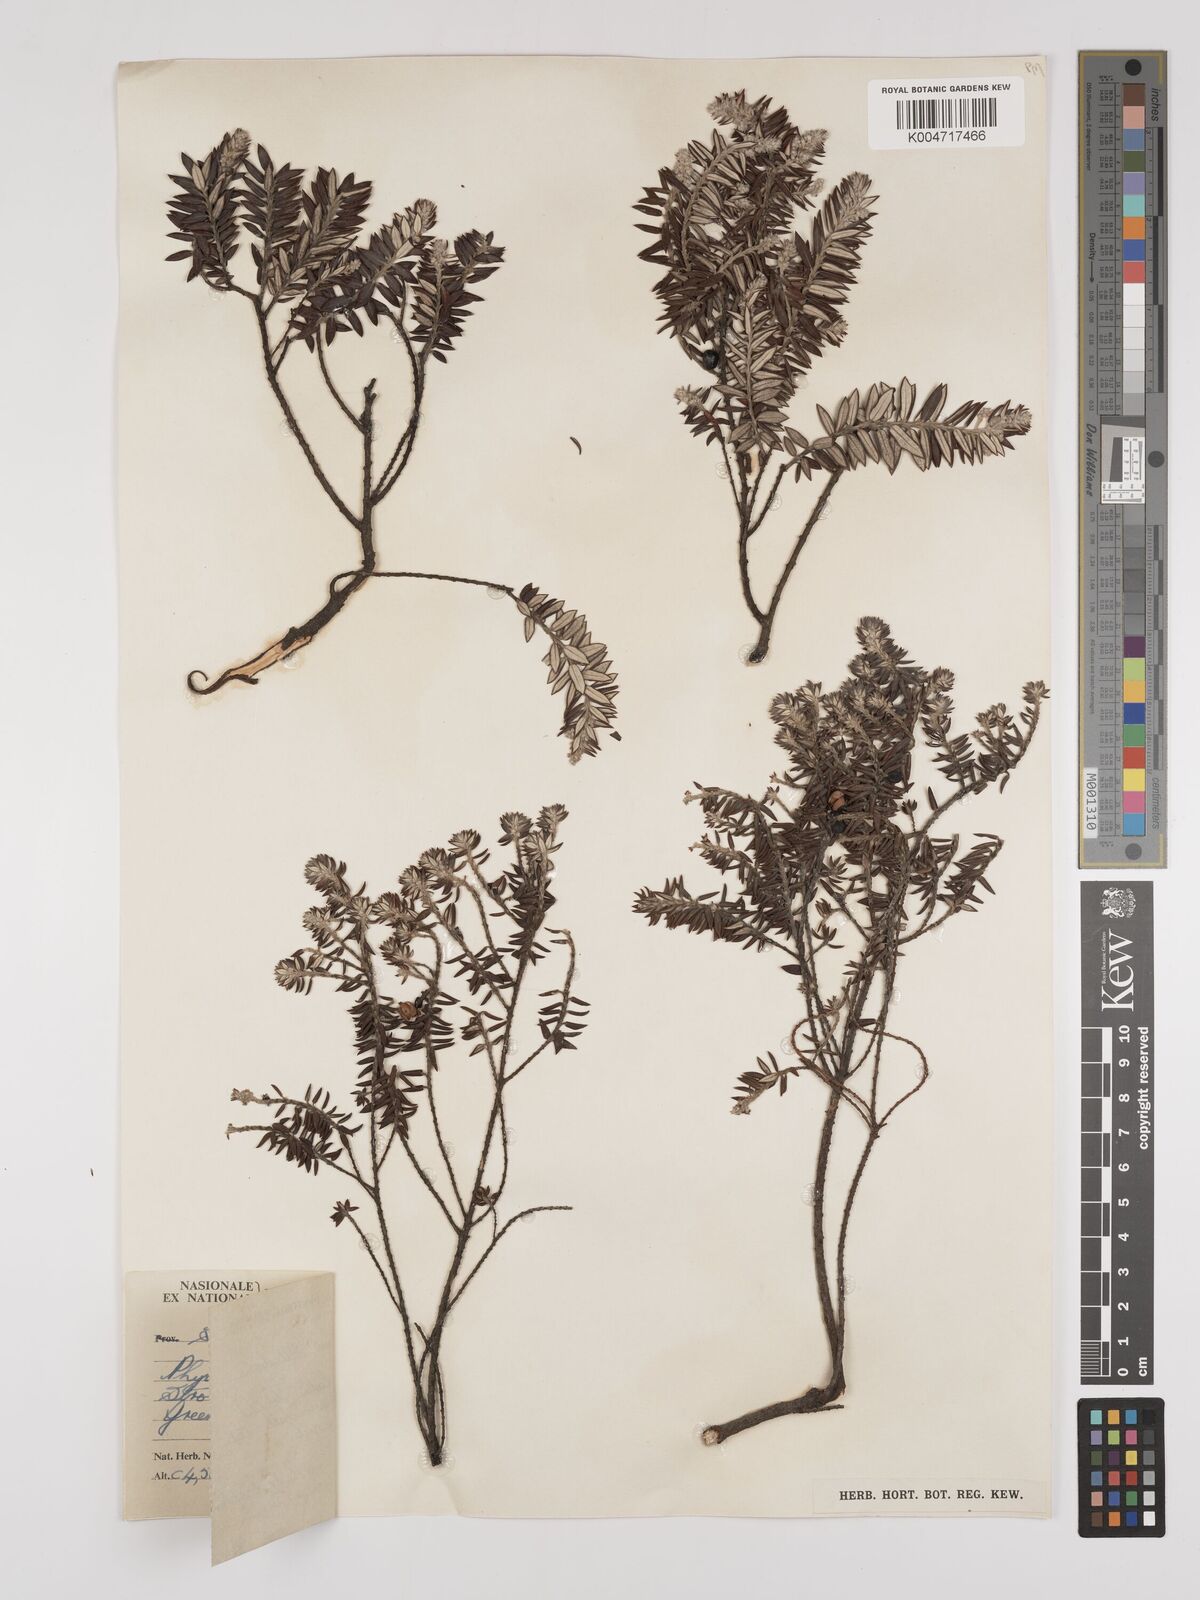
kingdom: Plantae
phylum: Tracheophyta
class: Magnoliopsida
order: Rosales
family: Rhamnaceae
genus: Phylica
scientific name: Phylica paniculata
